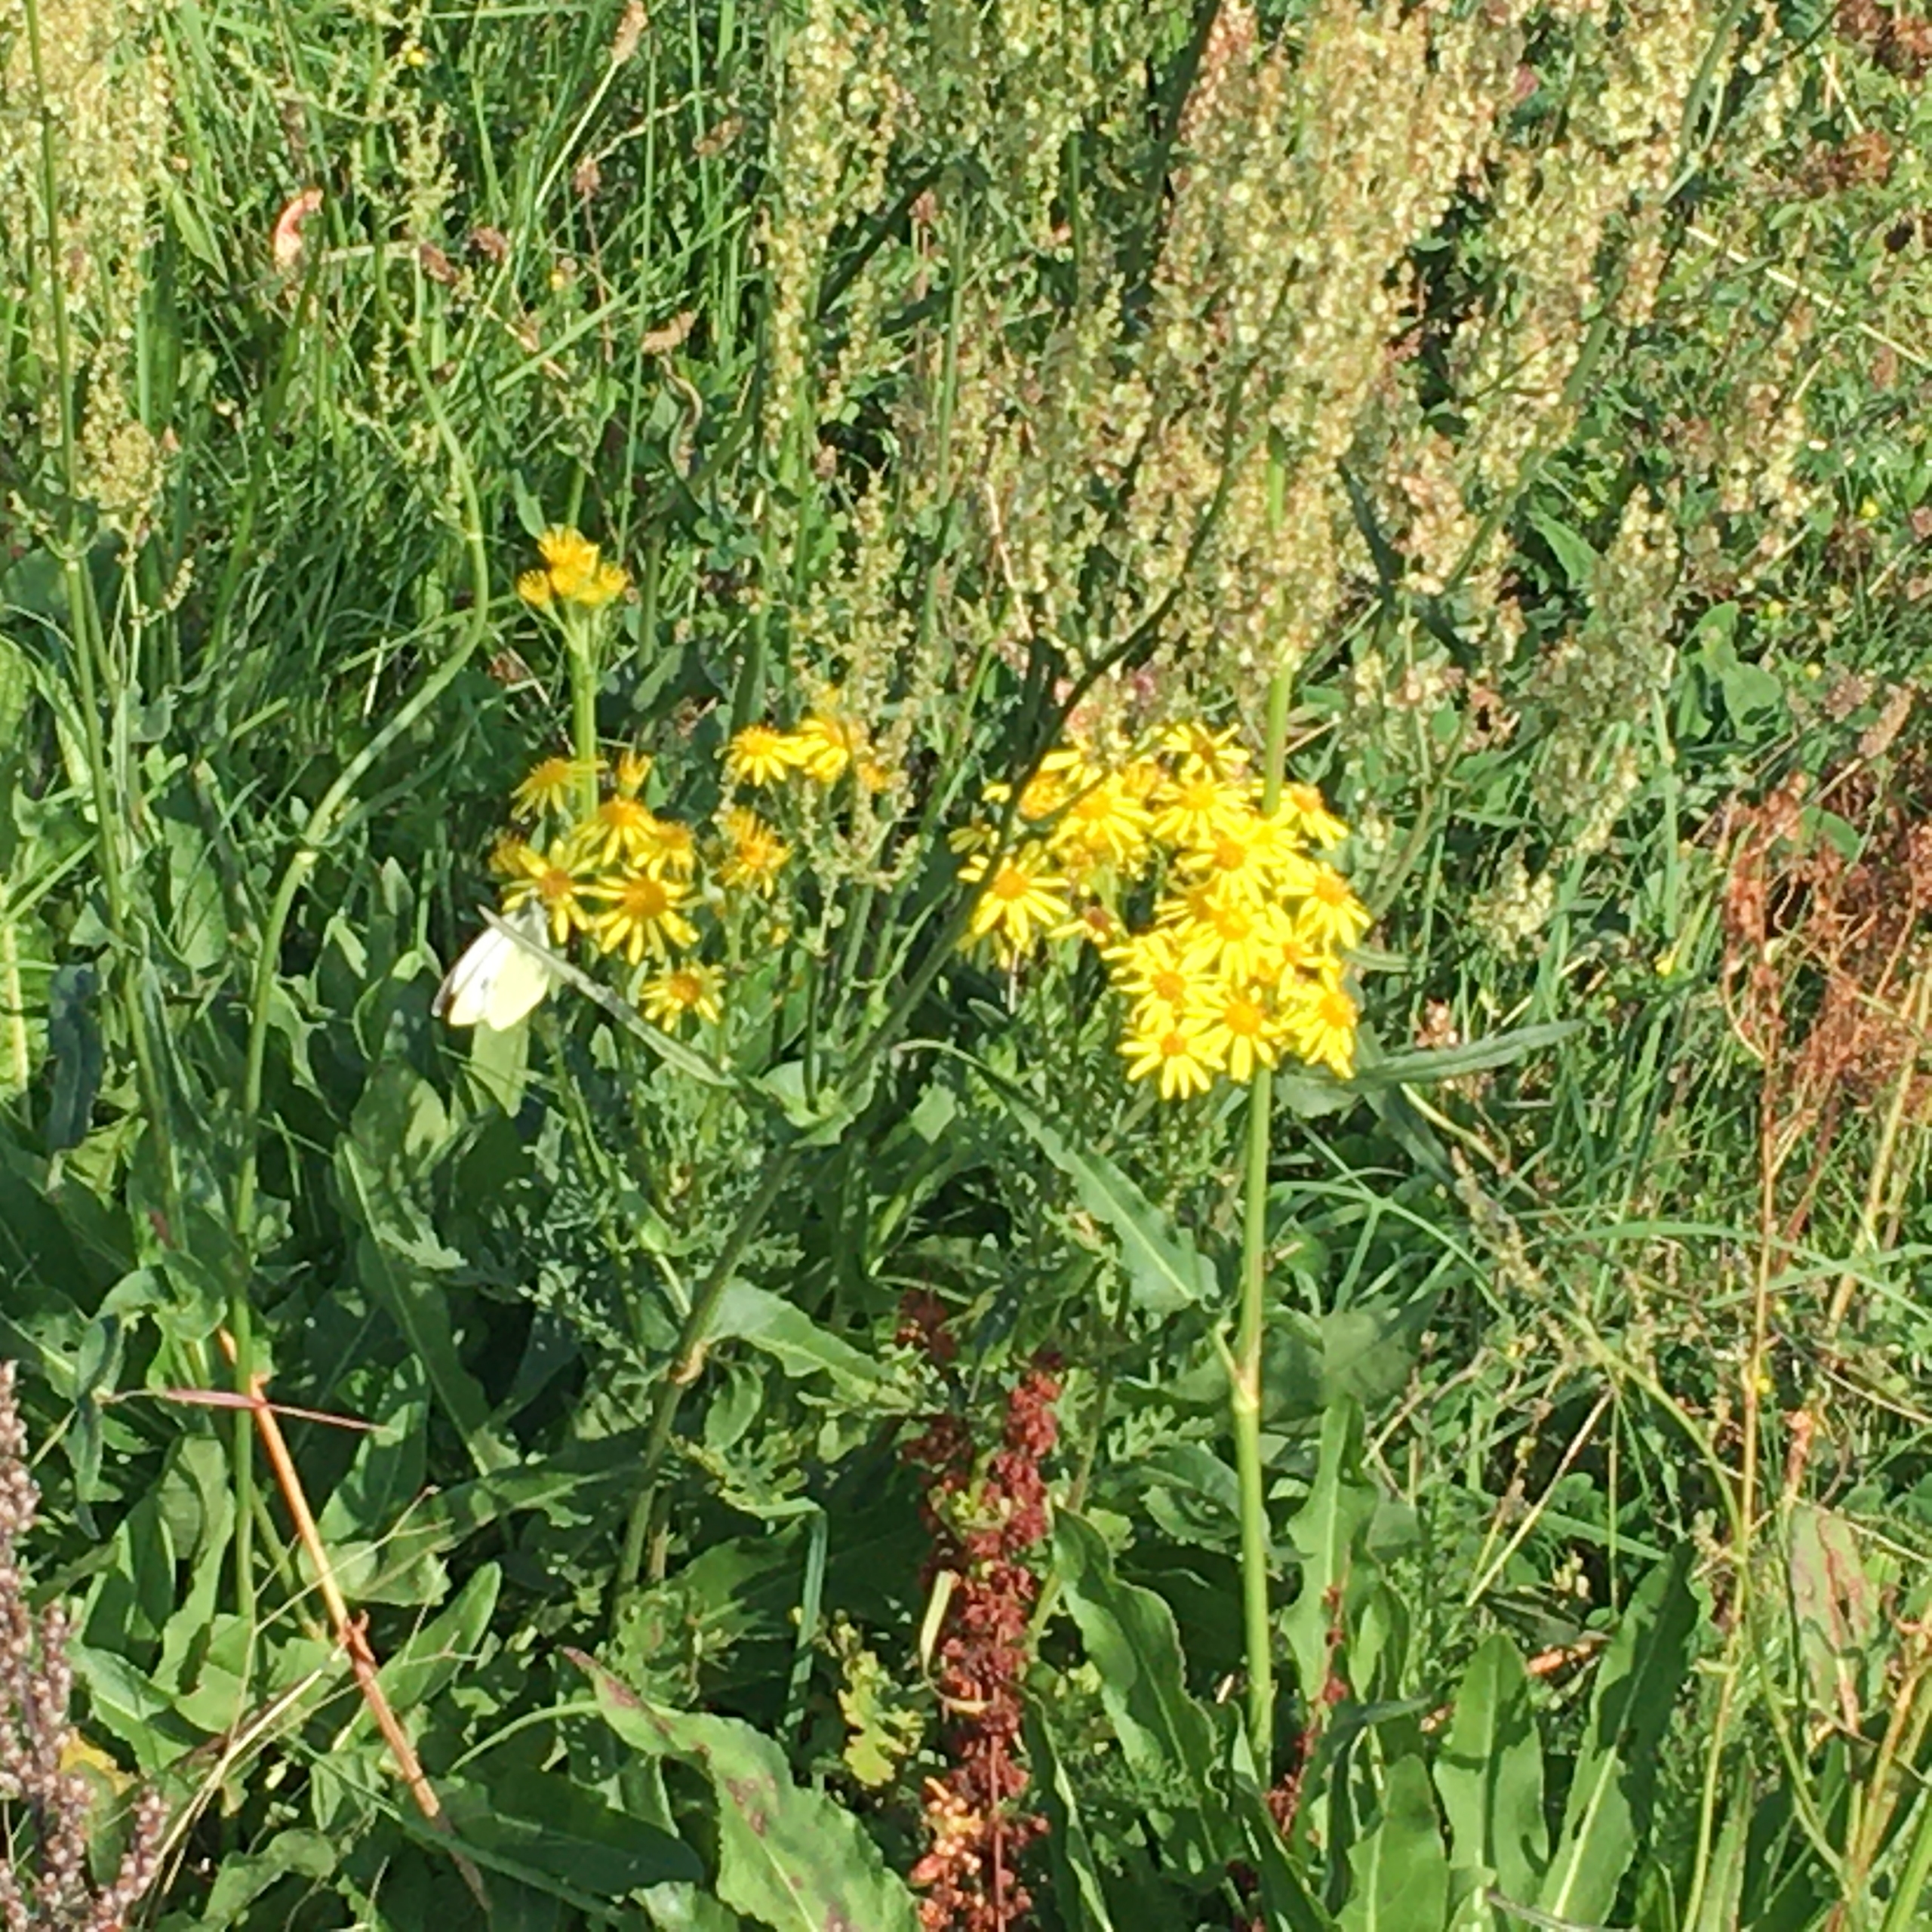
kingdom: Animalia
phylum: Arthropoda
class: Insecta
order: Lepidoptera
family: Pieridae
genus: Pieris
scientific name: Pieris brassicae
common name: Stor kålsommerfugl
